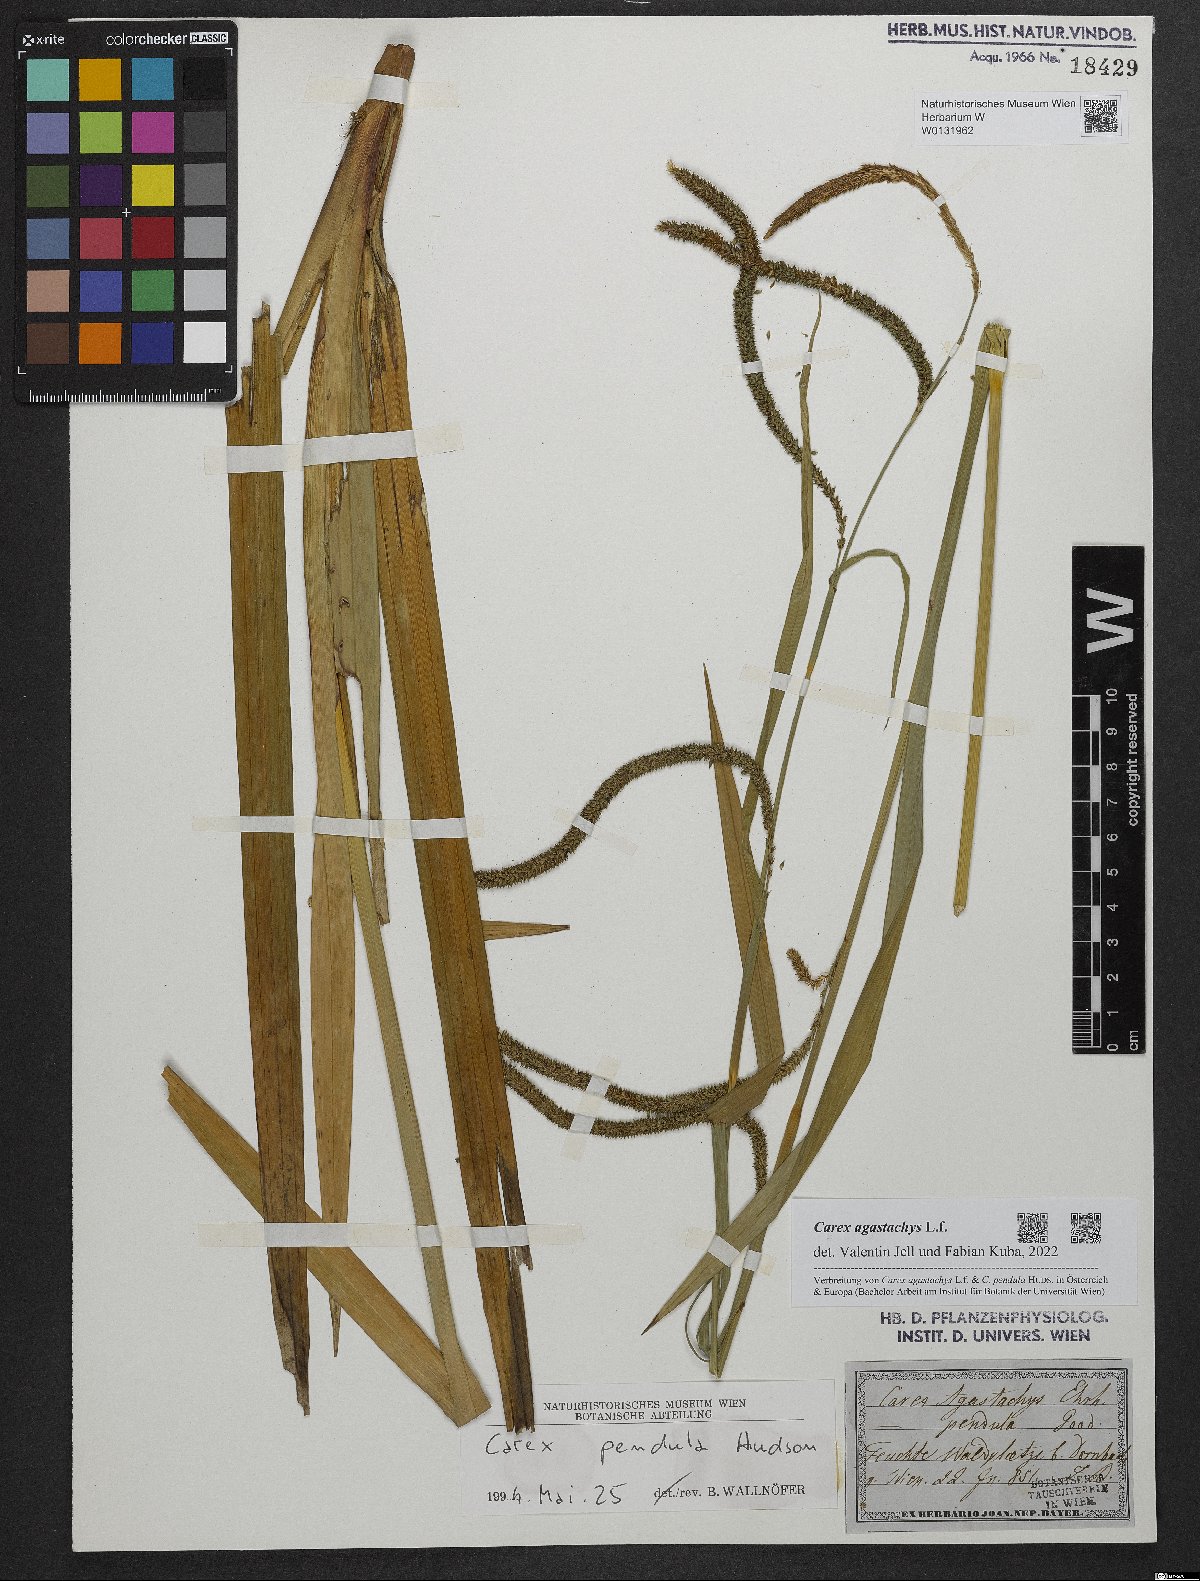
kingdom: Plantae
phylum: Tracheophyta
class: Liliopsida
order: Poales
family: Cyperaceae
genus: Carex
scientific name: Carex agastachys
